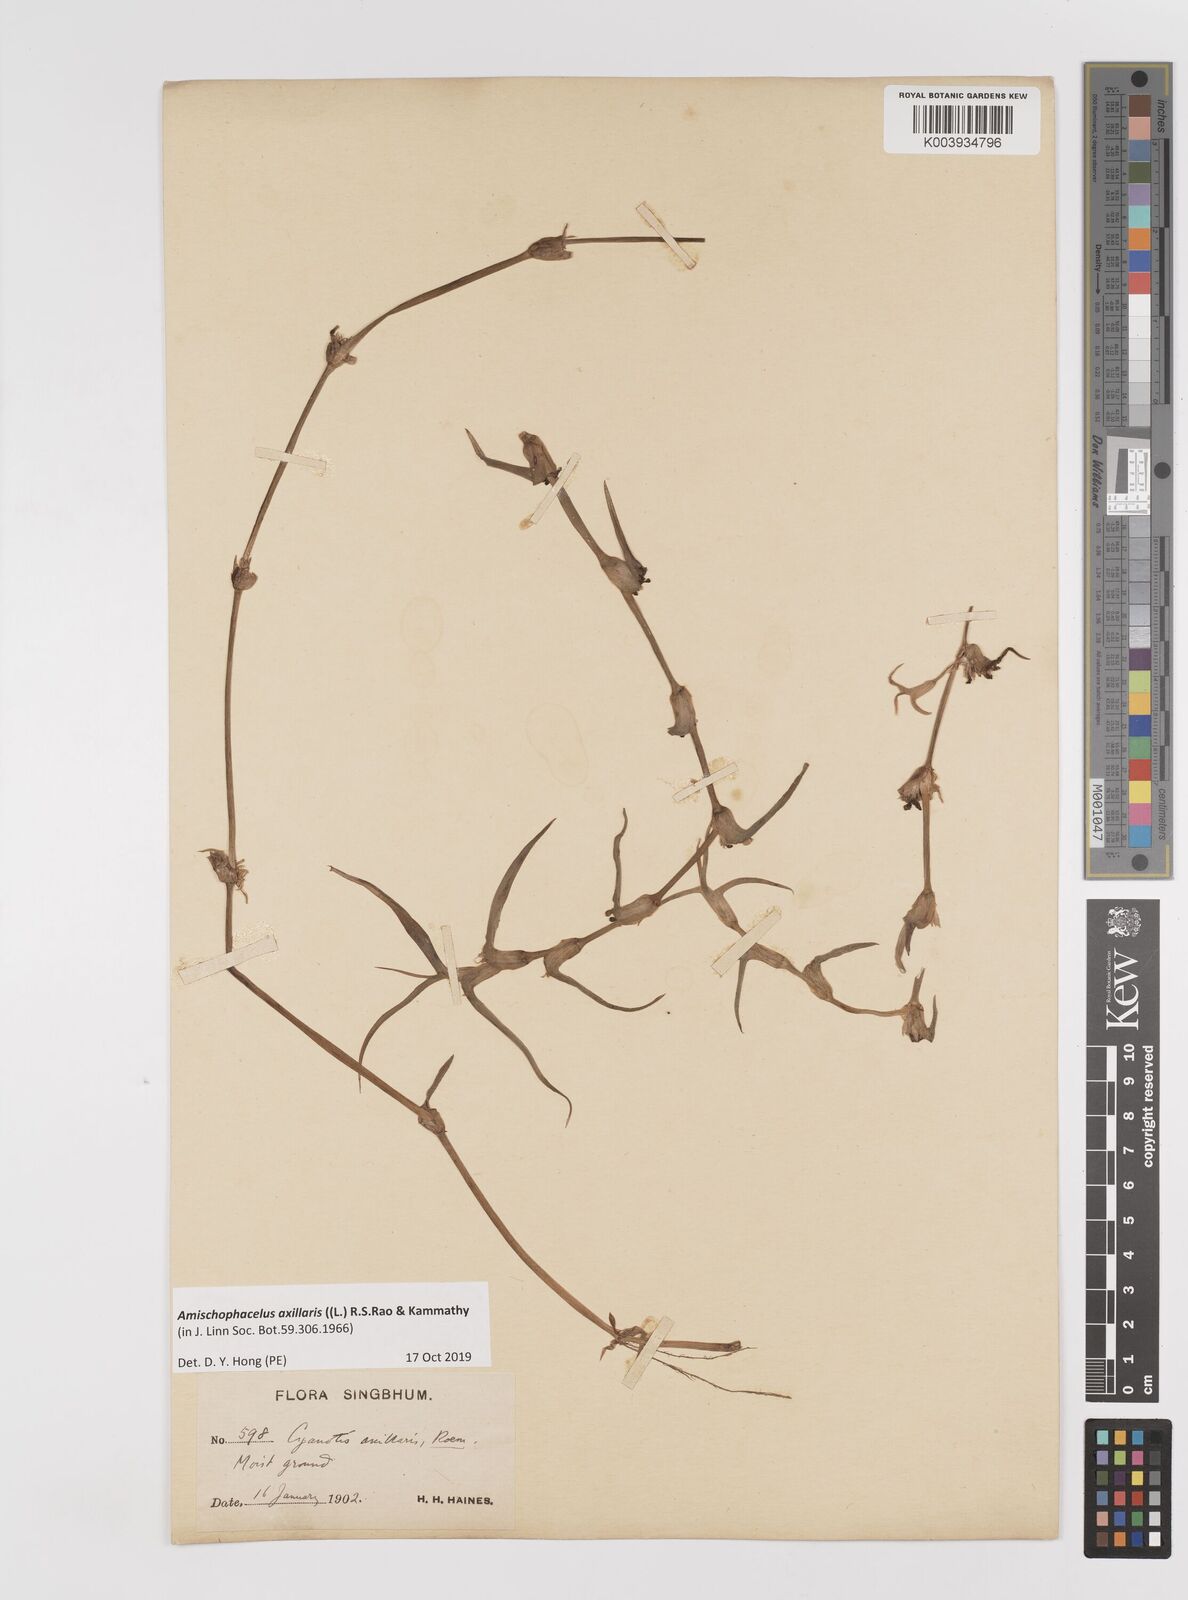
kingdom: Plantae
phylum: Tracheophyta
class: Liliopsida
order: Commelinales
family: Commelinaceae
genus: Cyanotis
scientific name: Cyanotis axillaris
